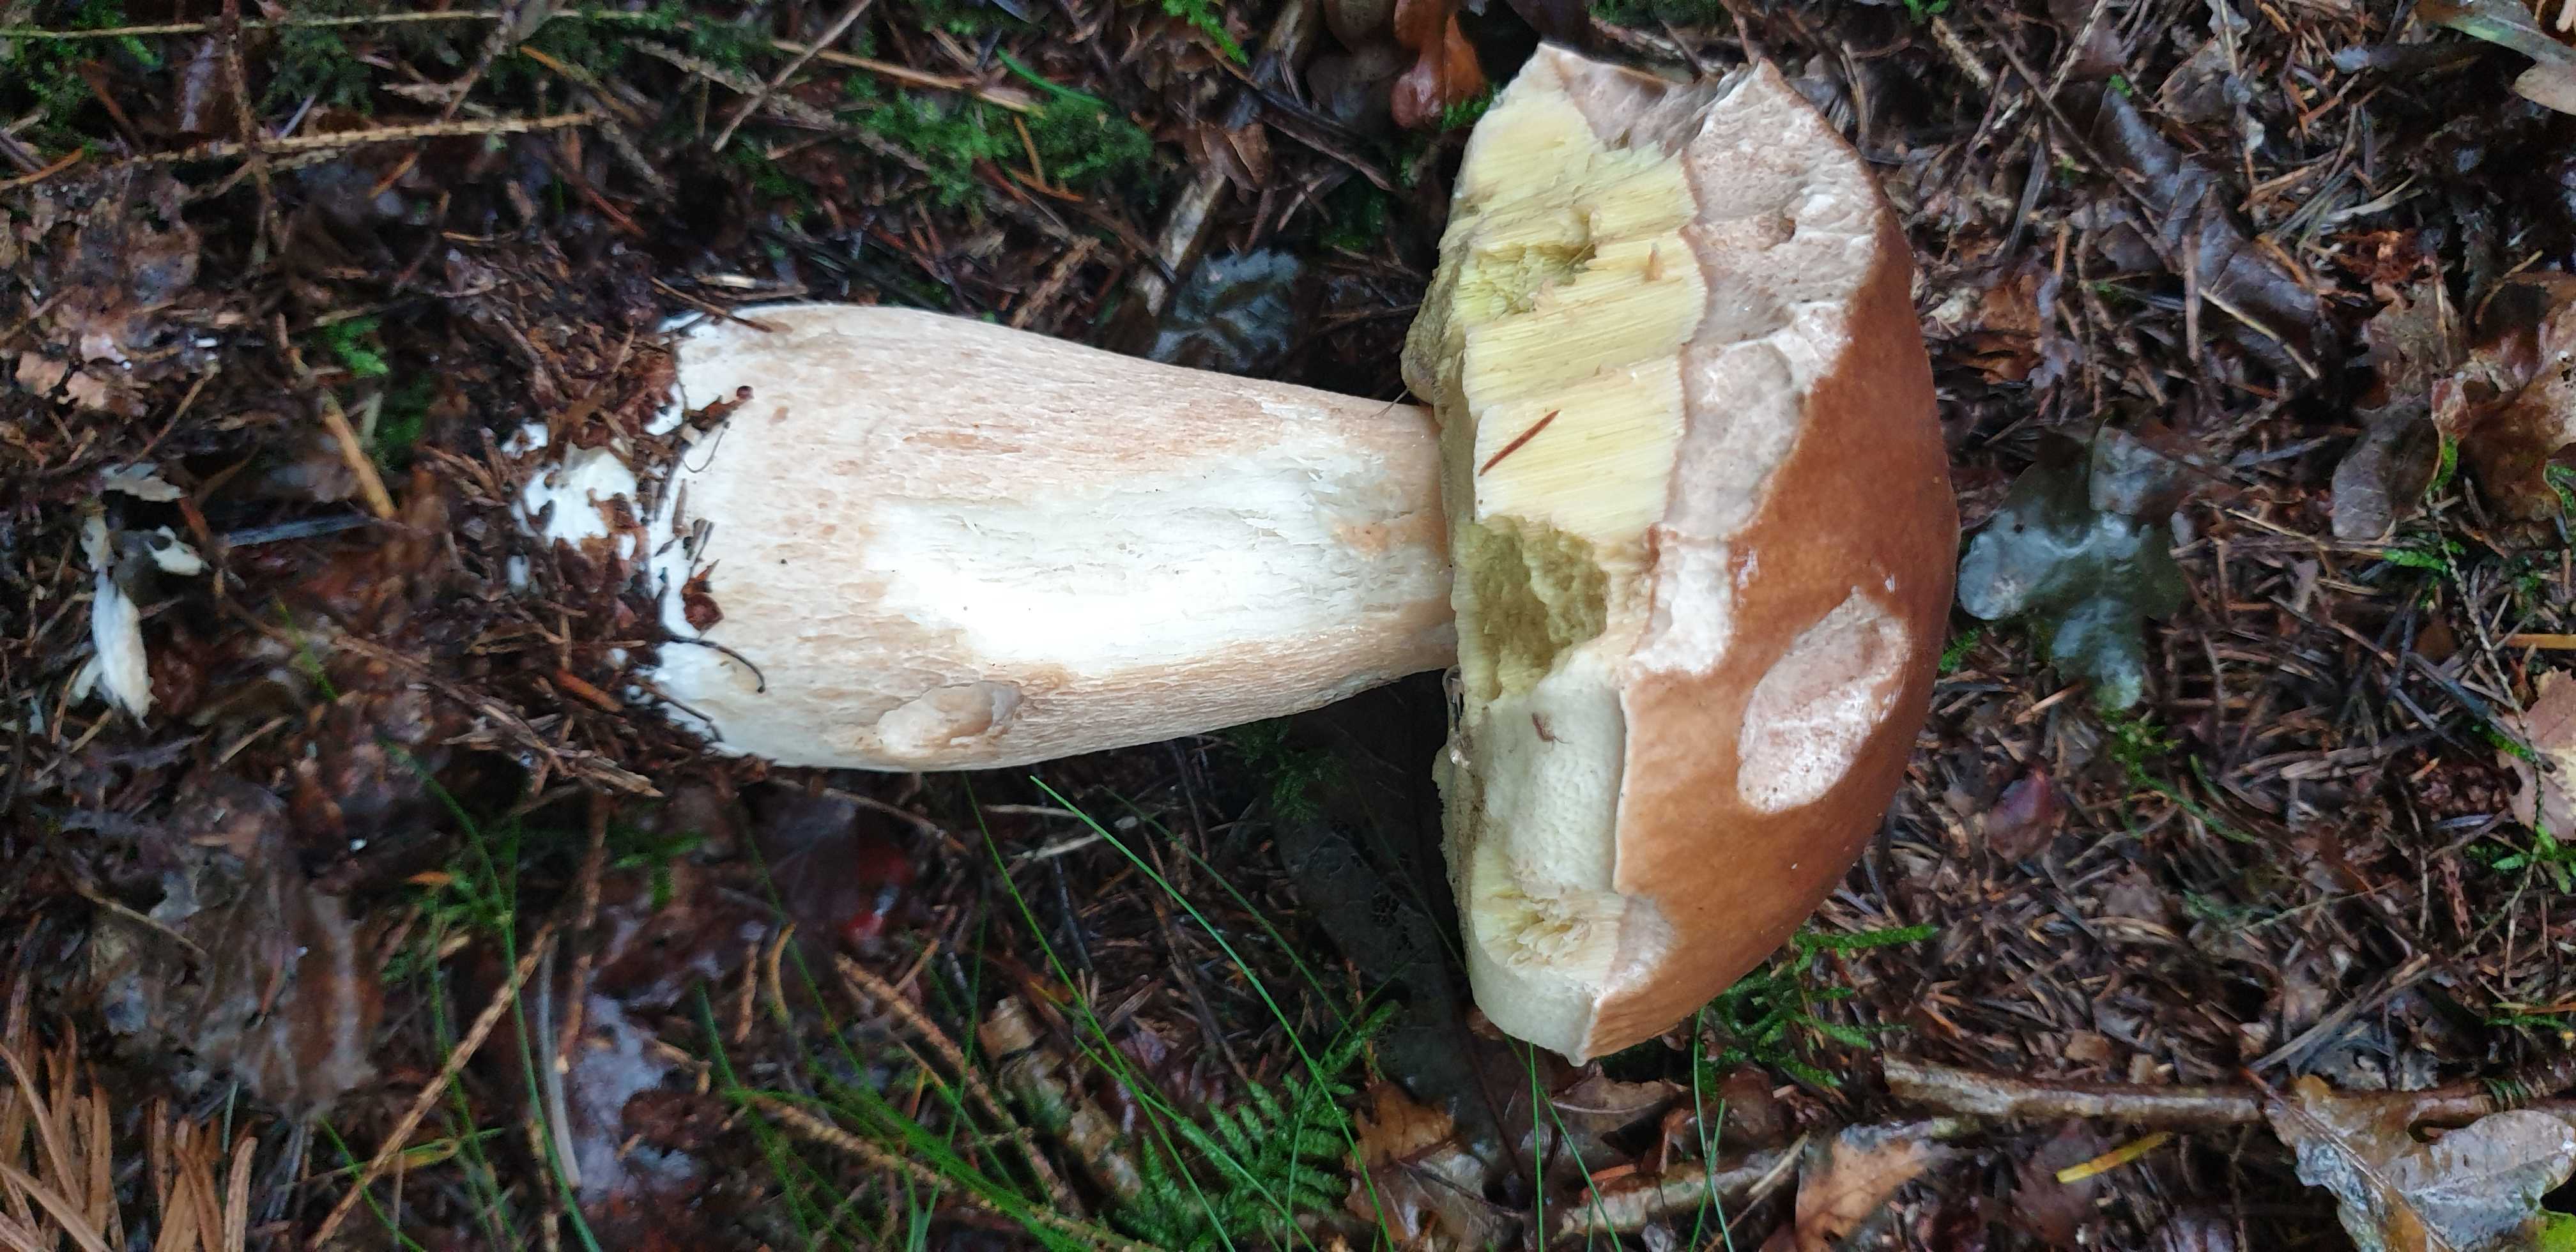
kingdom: Fungi
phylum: Basidiomycota
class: Agaricomycetes
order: Boletales
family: Boletaceae
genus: Boletus
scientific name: Boletus edulis
